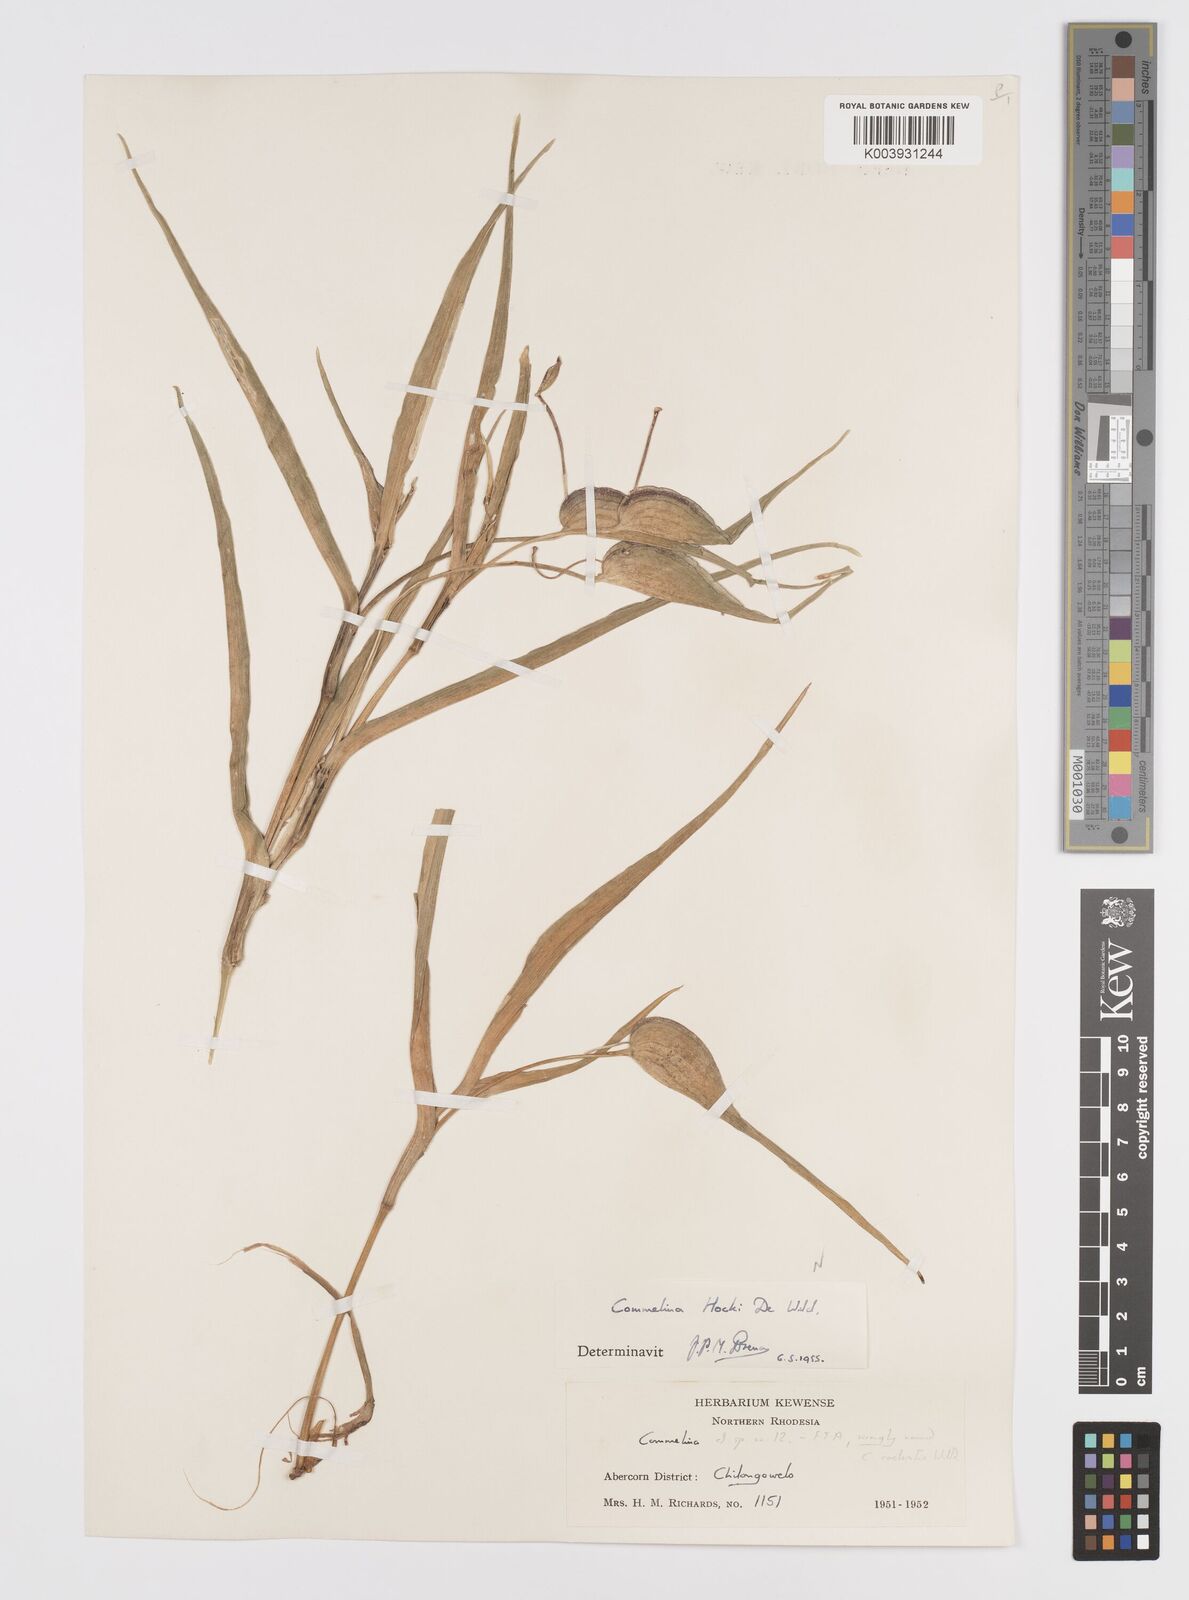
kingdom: Plantae
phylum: Tracheophyta
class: Liliopsida
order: Commelinales
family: Commelinaceae
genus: Commelina
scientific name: Commelina hockii
